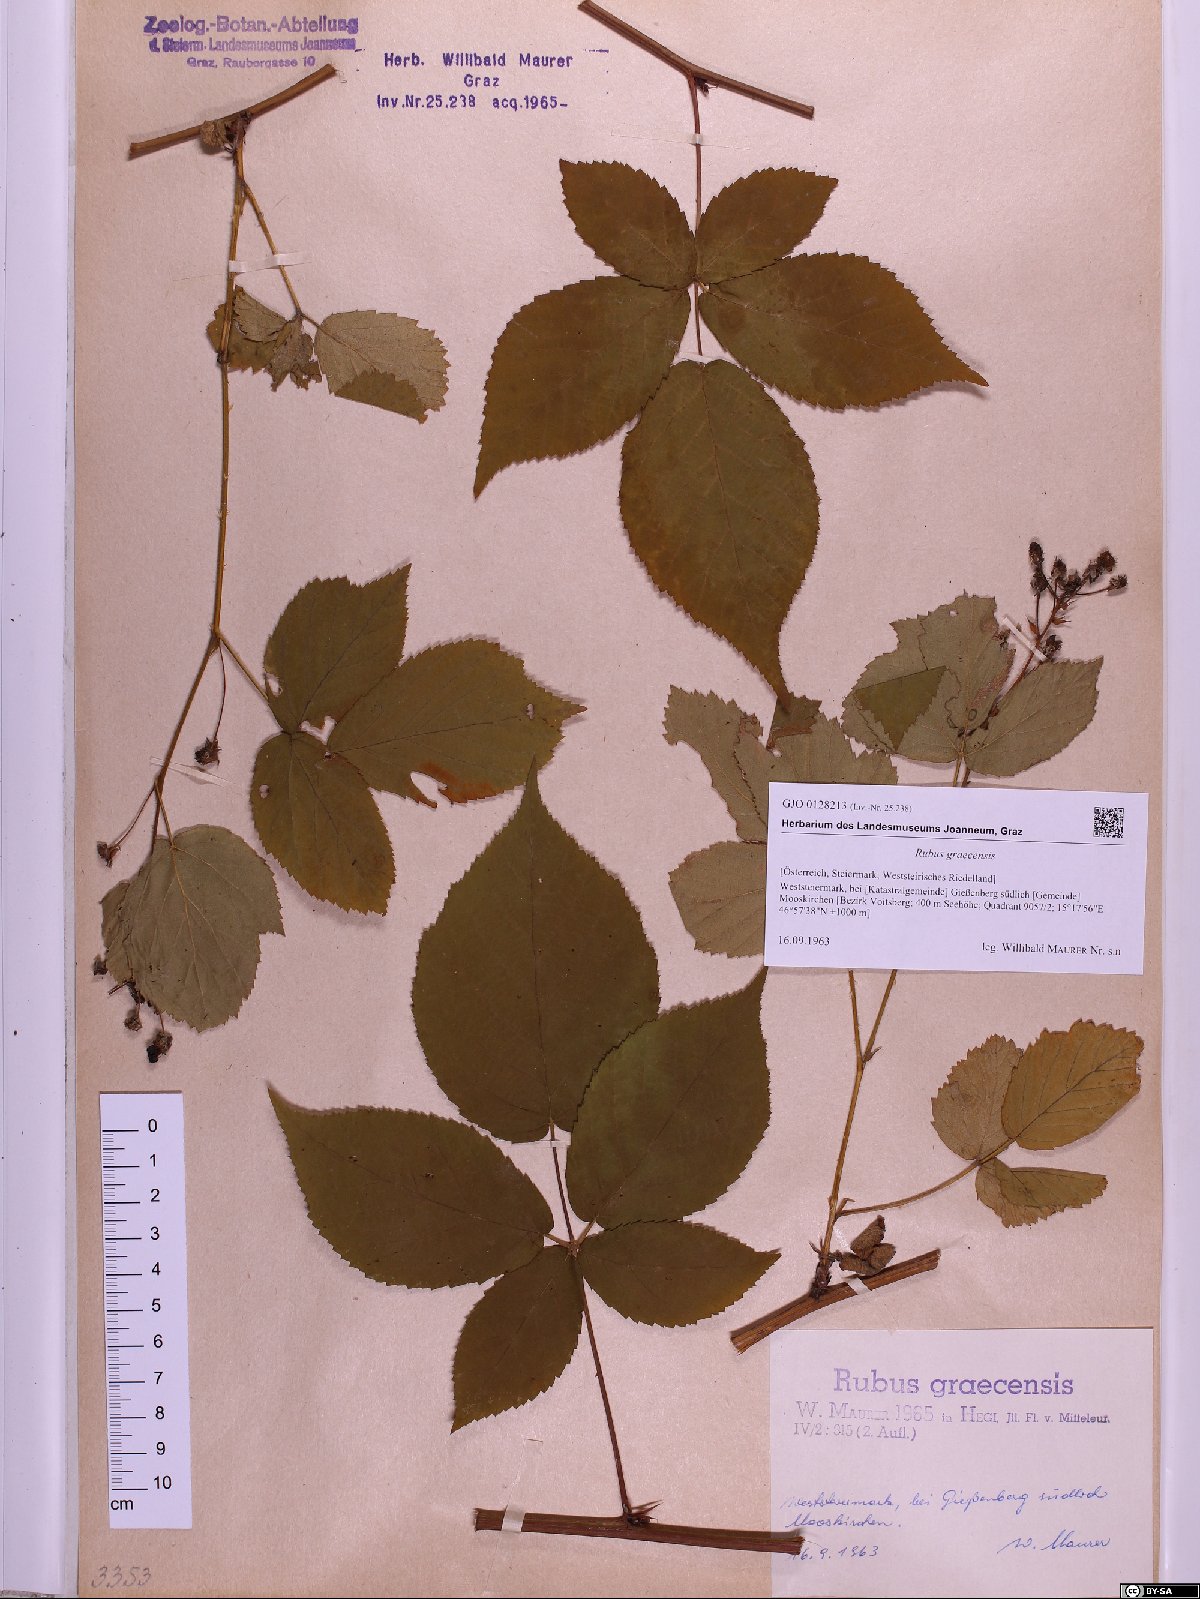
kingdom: Plantae
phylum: Tracheophyta
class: Magnoliopsida
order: Rosales
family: Rosaceae
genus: Rubus
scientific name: Rubus graecensis
